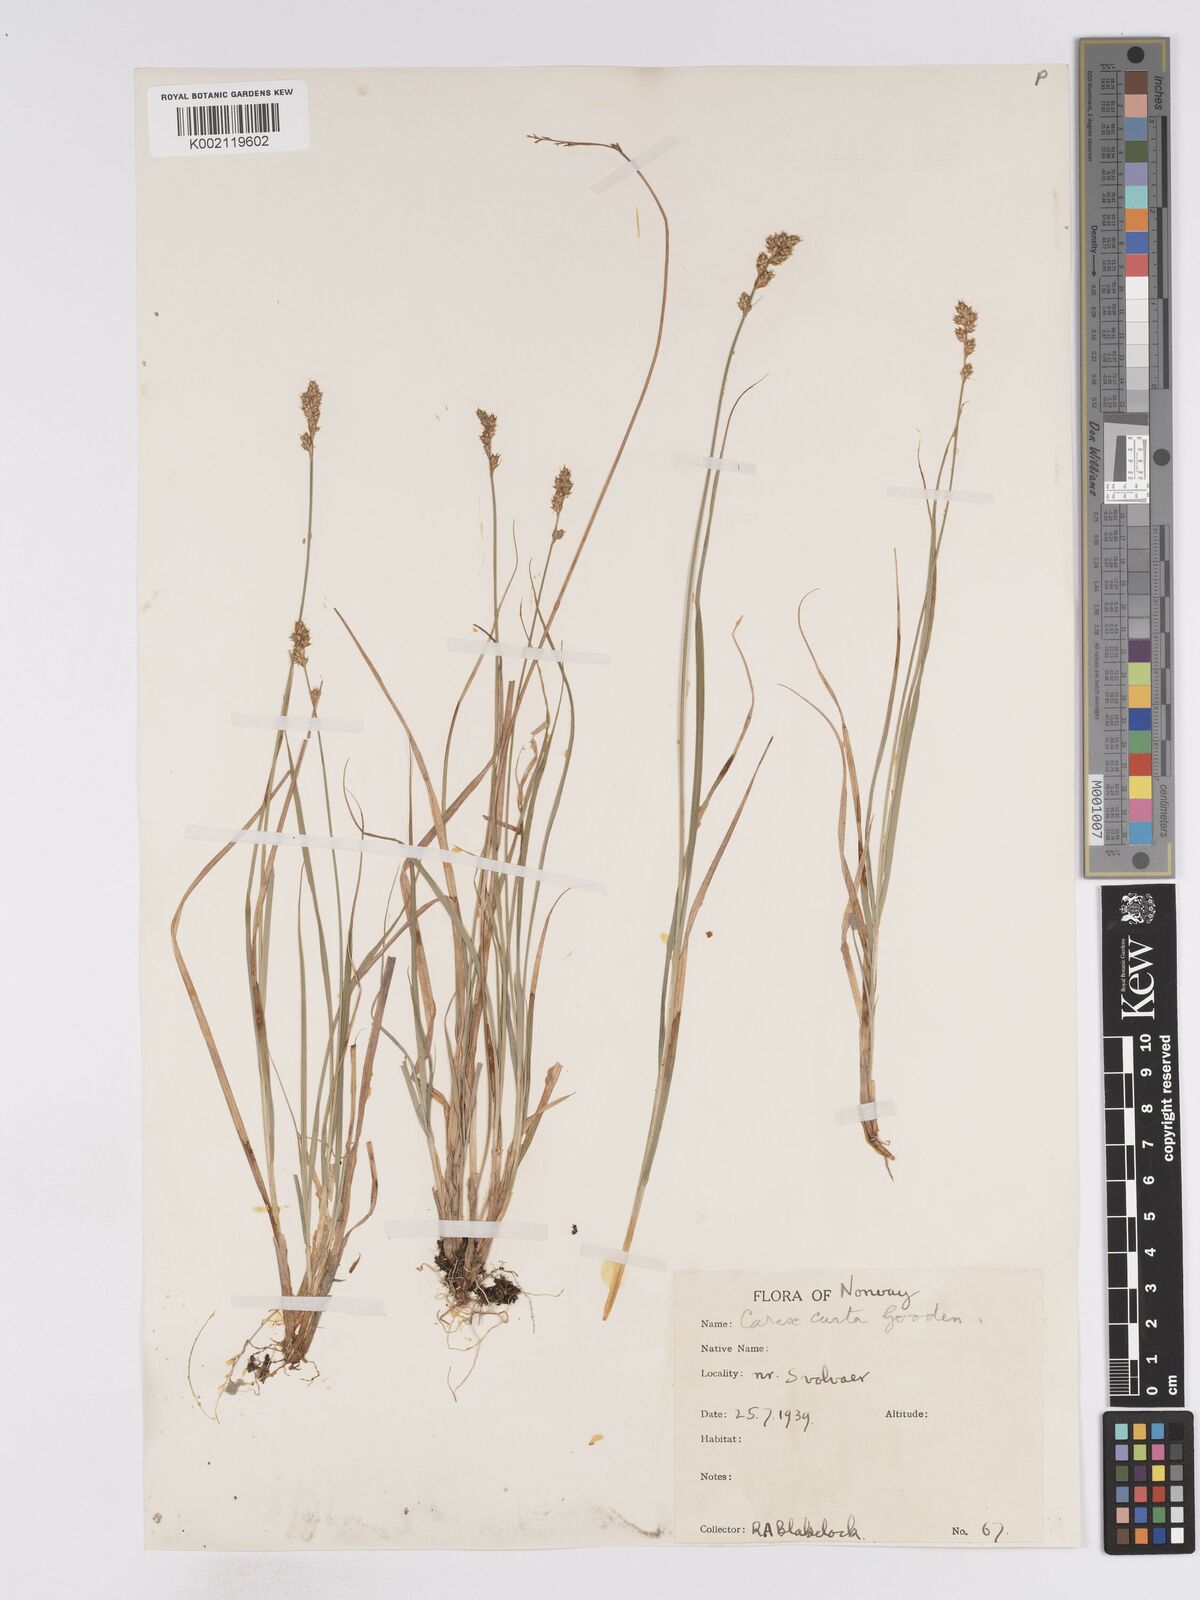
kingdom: Plantae
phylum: Tracheophyta
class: Liliopsida
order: Poales
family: Cyperaceae
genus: Carex
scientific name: Carex curta
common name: White sedge
